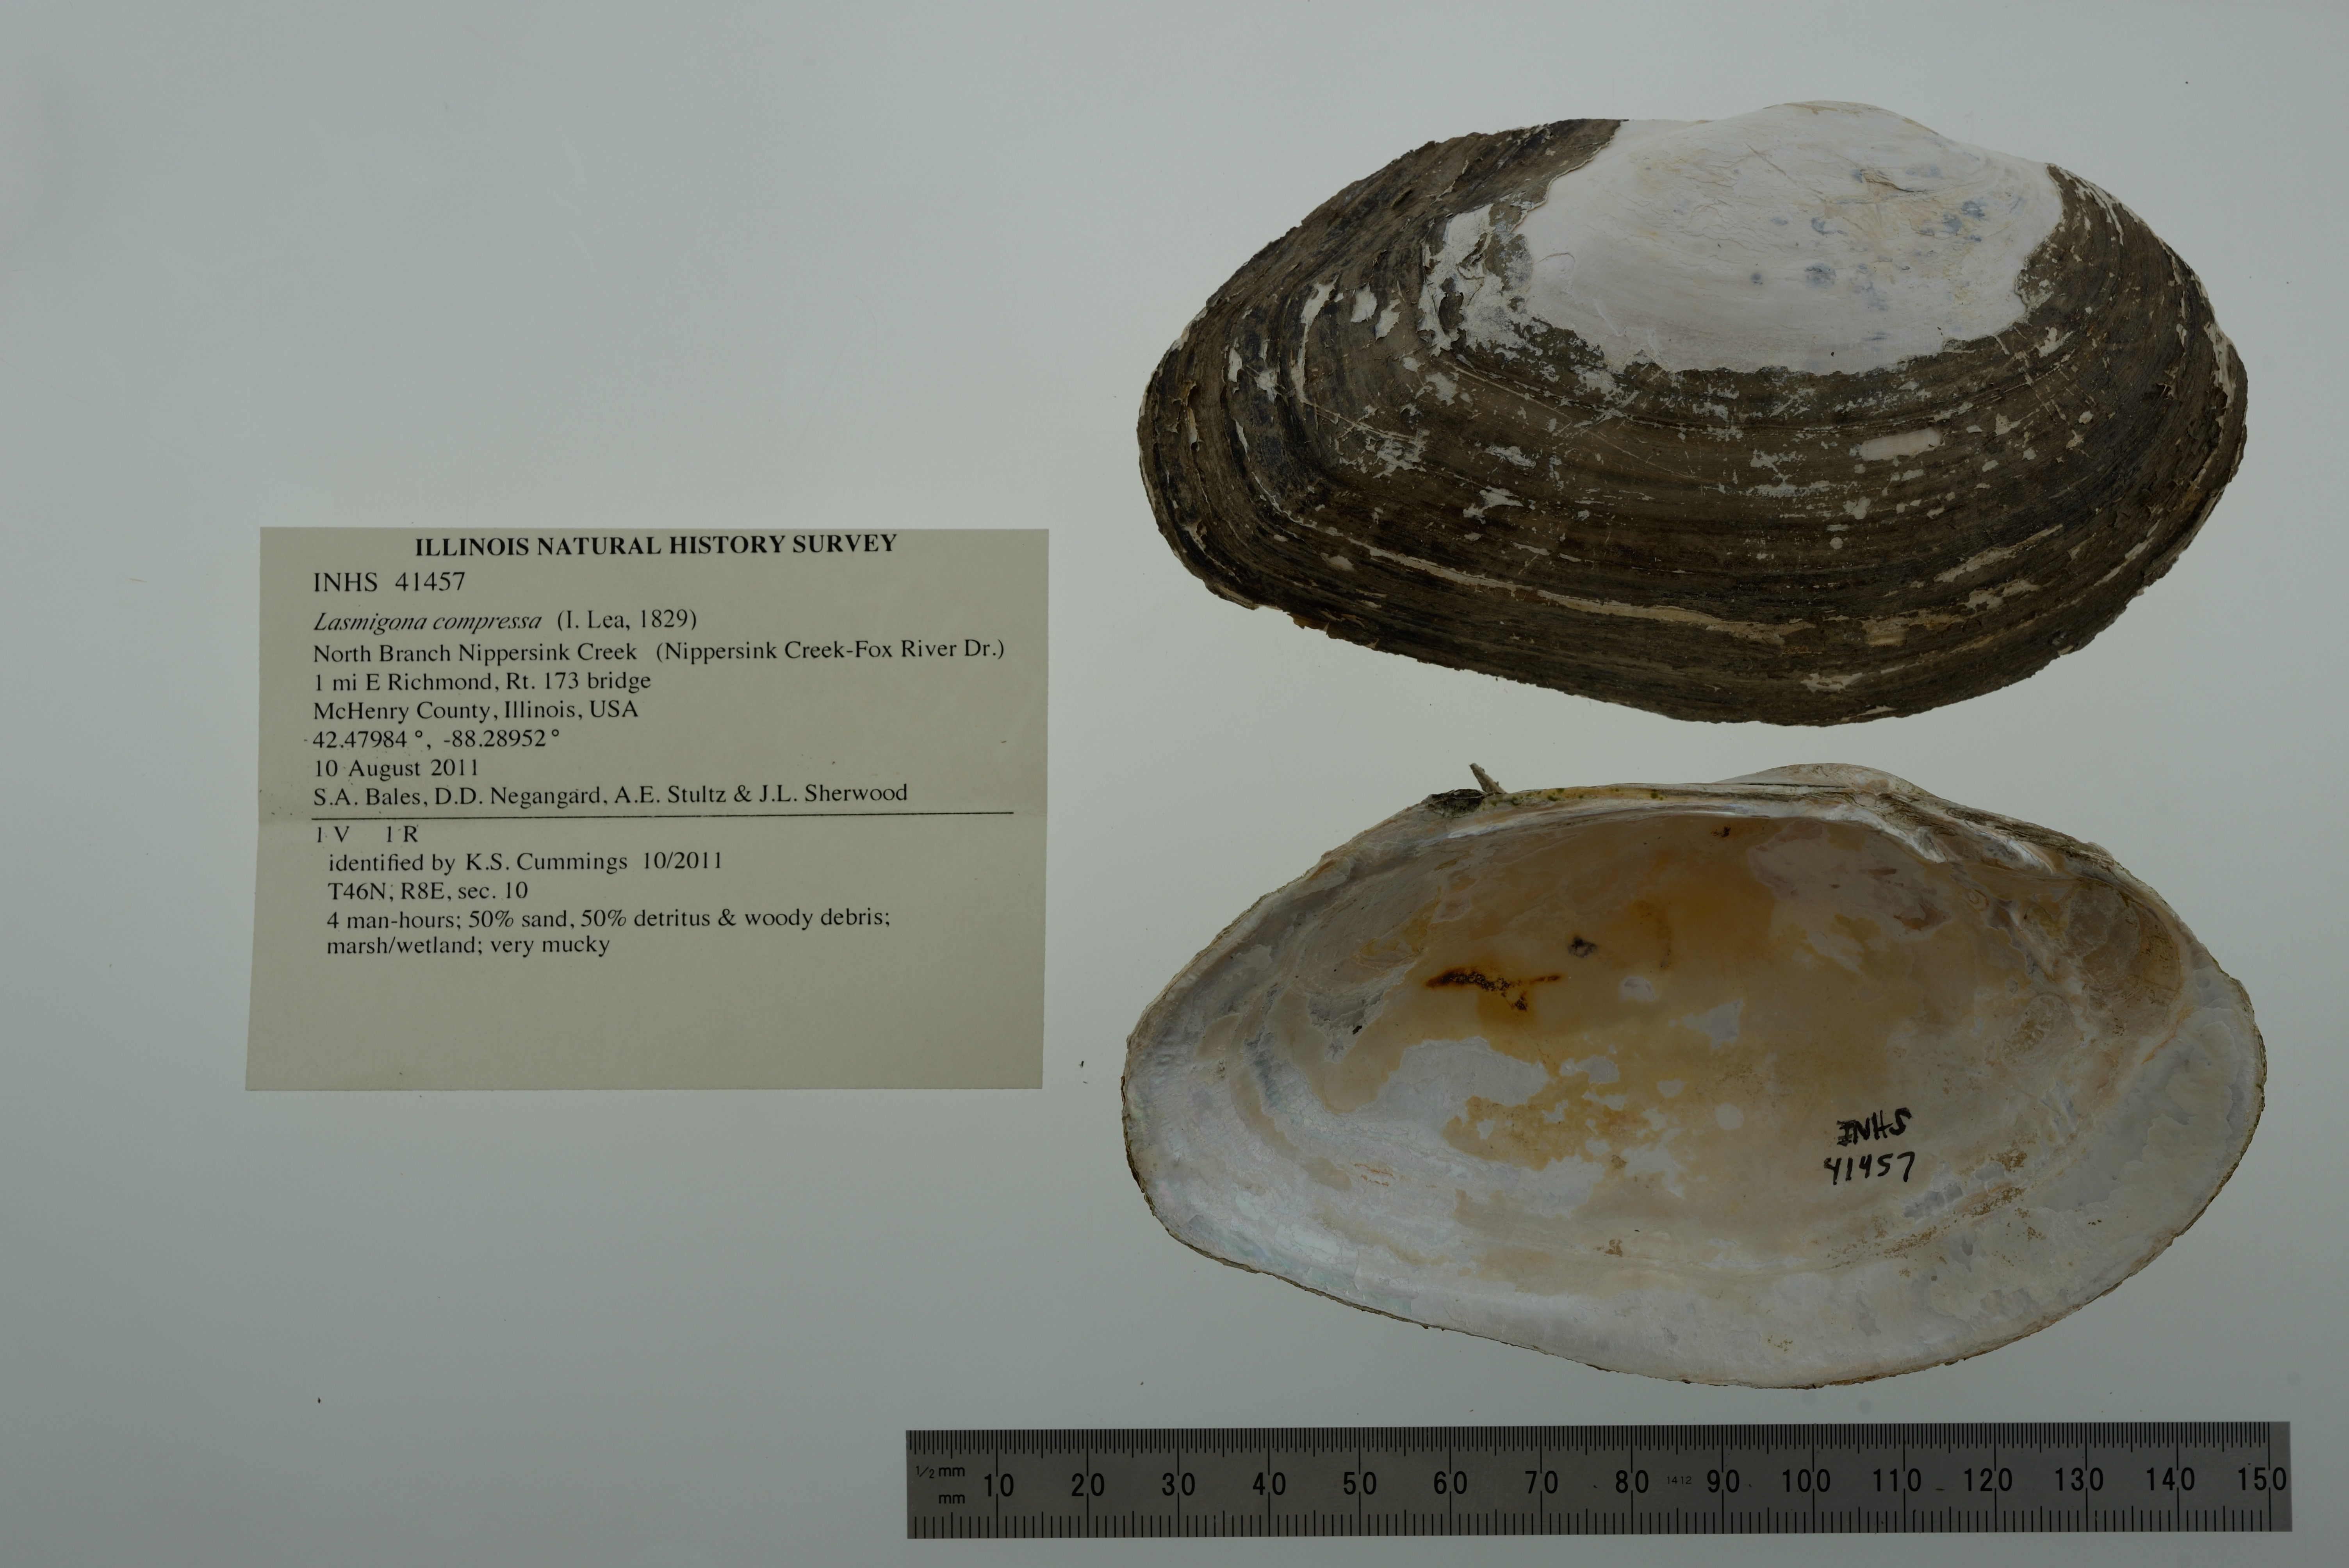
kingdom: Animalia
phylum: Mollusca
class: Bivalvia
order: Unionida
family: Unionidae
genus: Lasmigona
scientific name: Lasmigona compressa
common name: Creek heelsplitter
